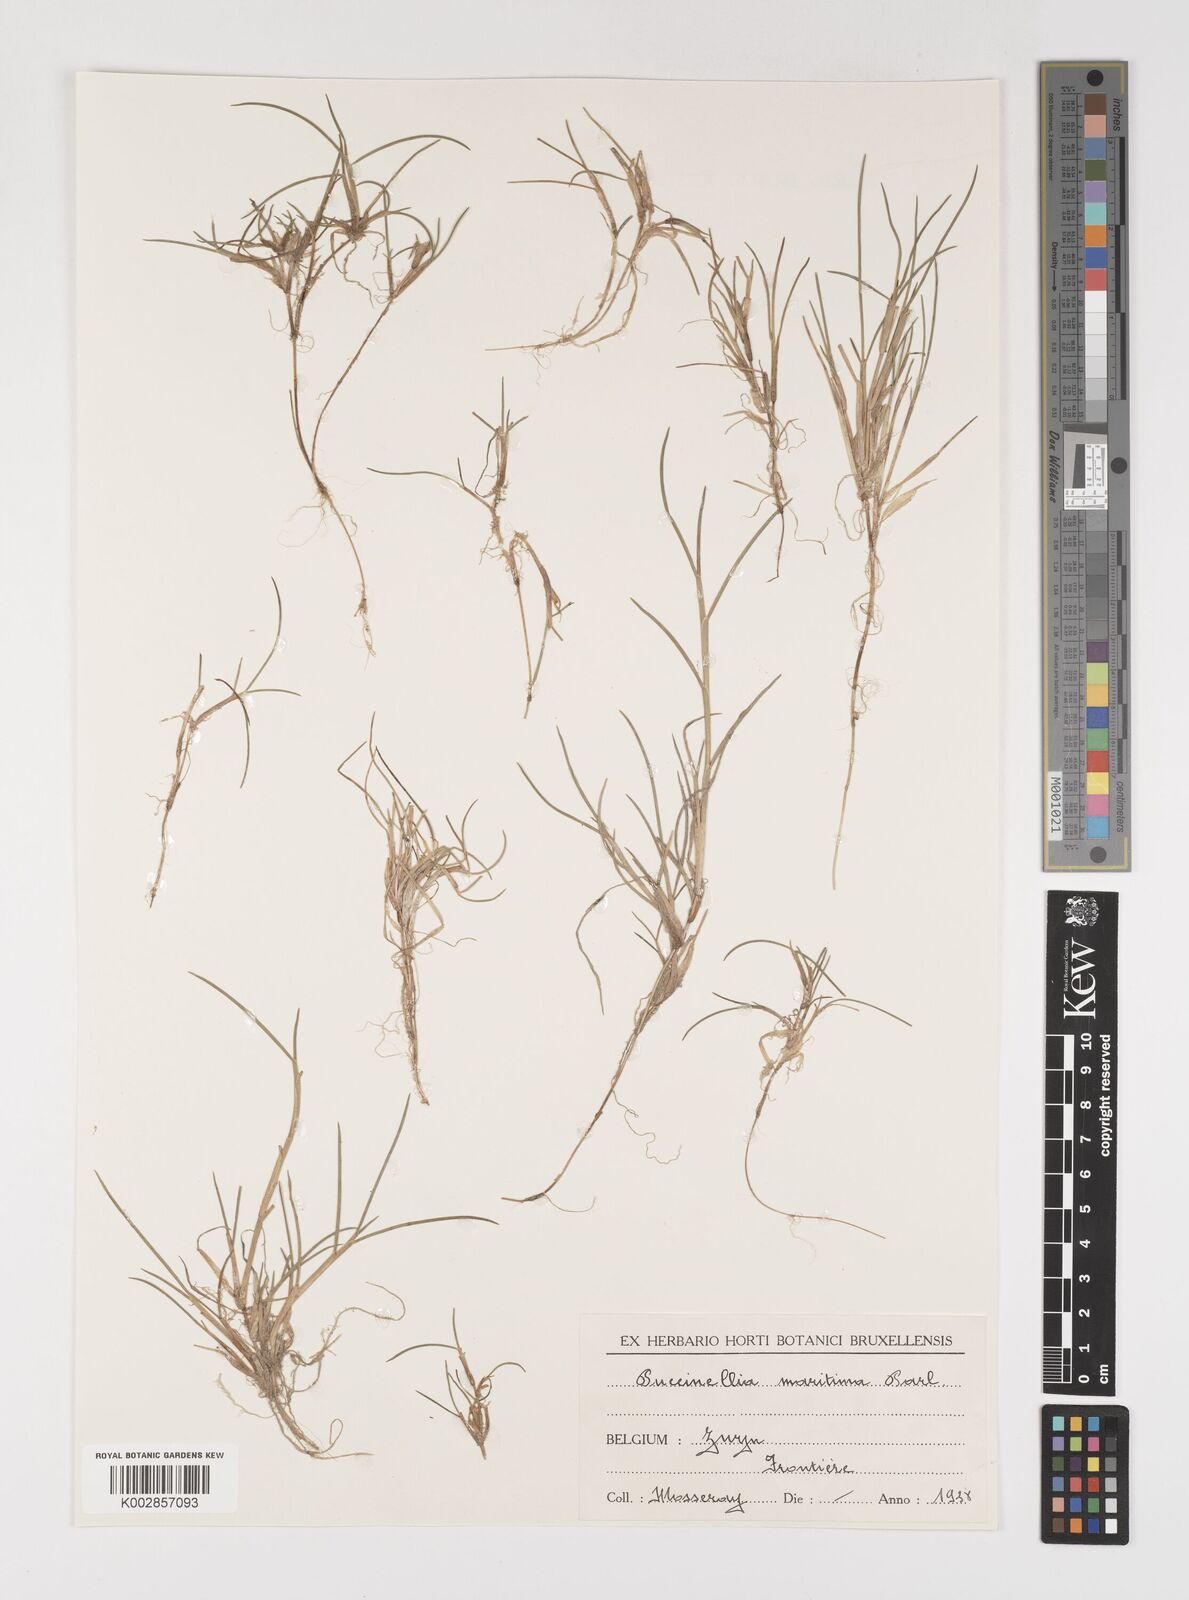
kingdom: Plantae
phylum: Tracheophyta
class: Liliopsida
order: Poales
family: Poaceae
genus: Puccinellia
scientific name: Puccinellia maritima
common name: Common saltmarsh grass
